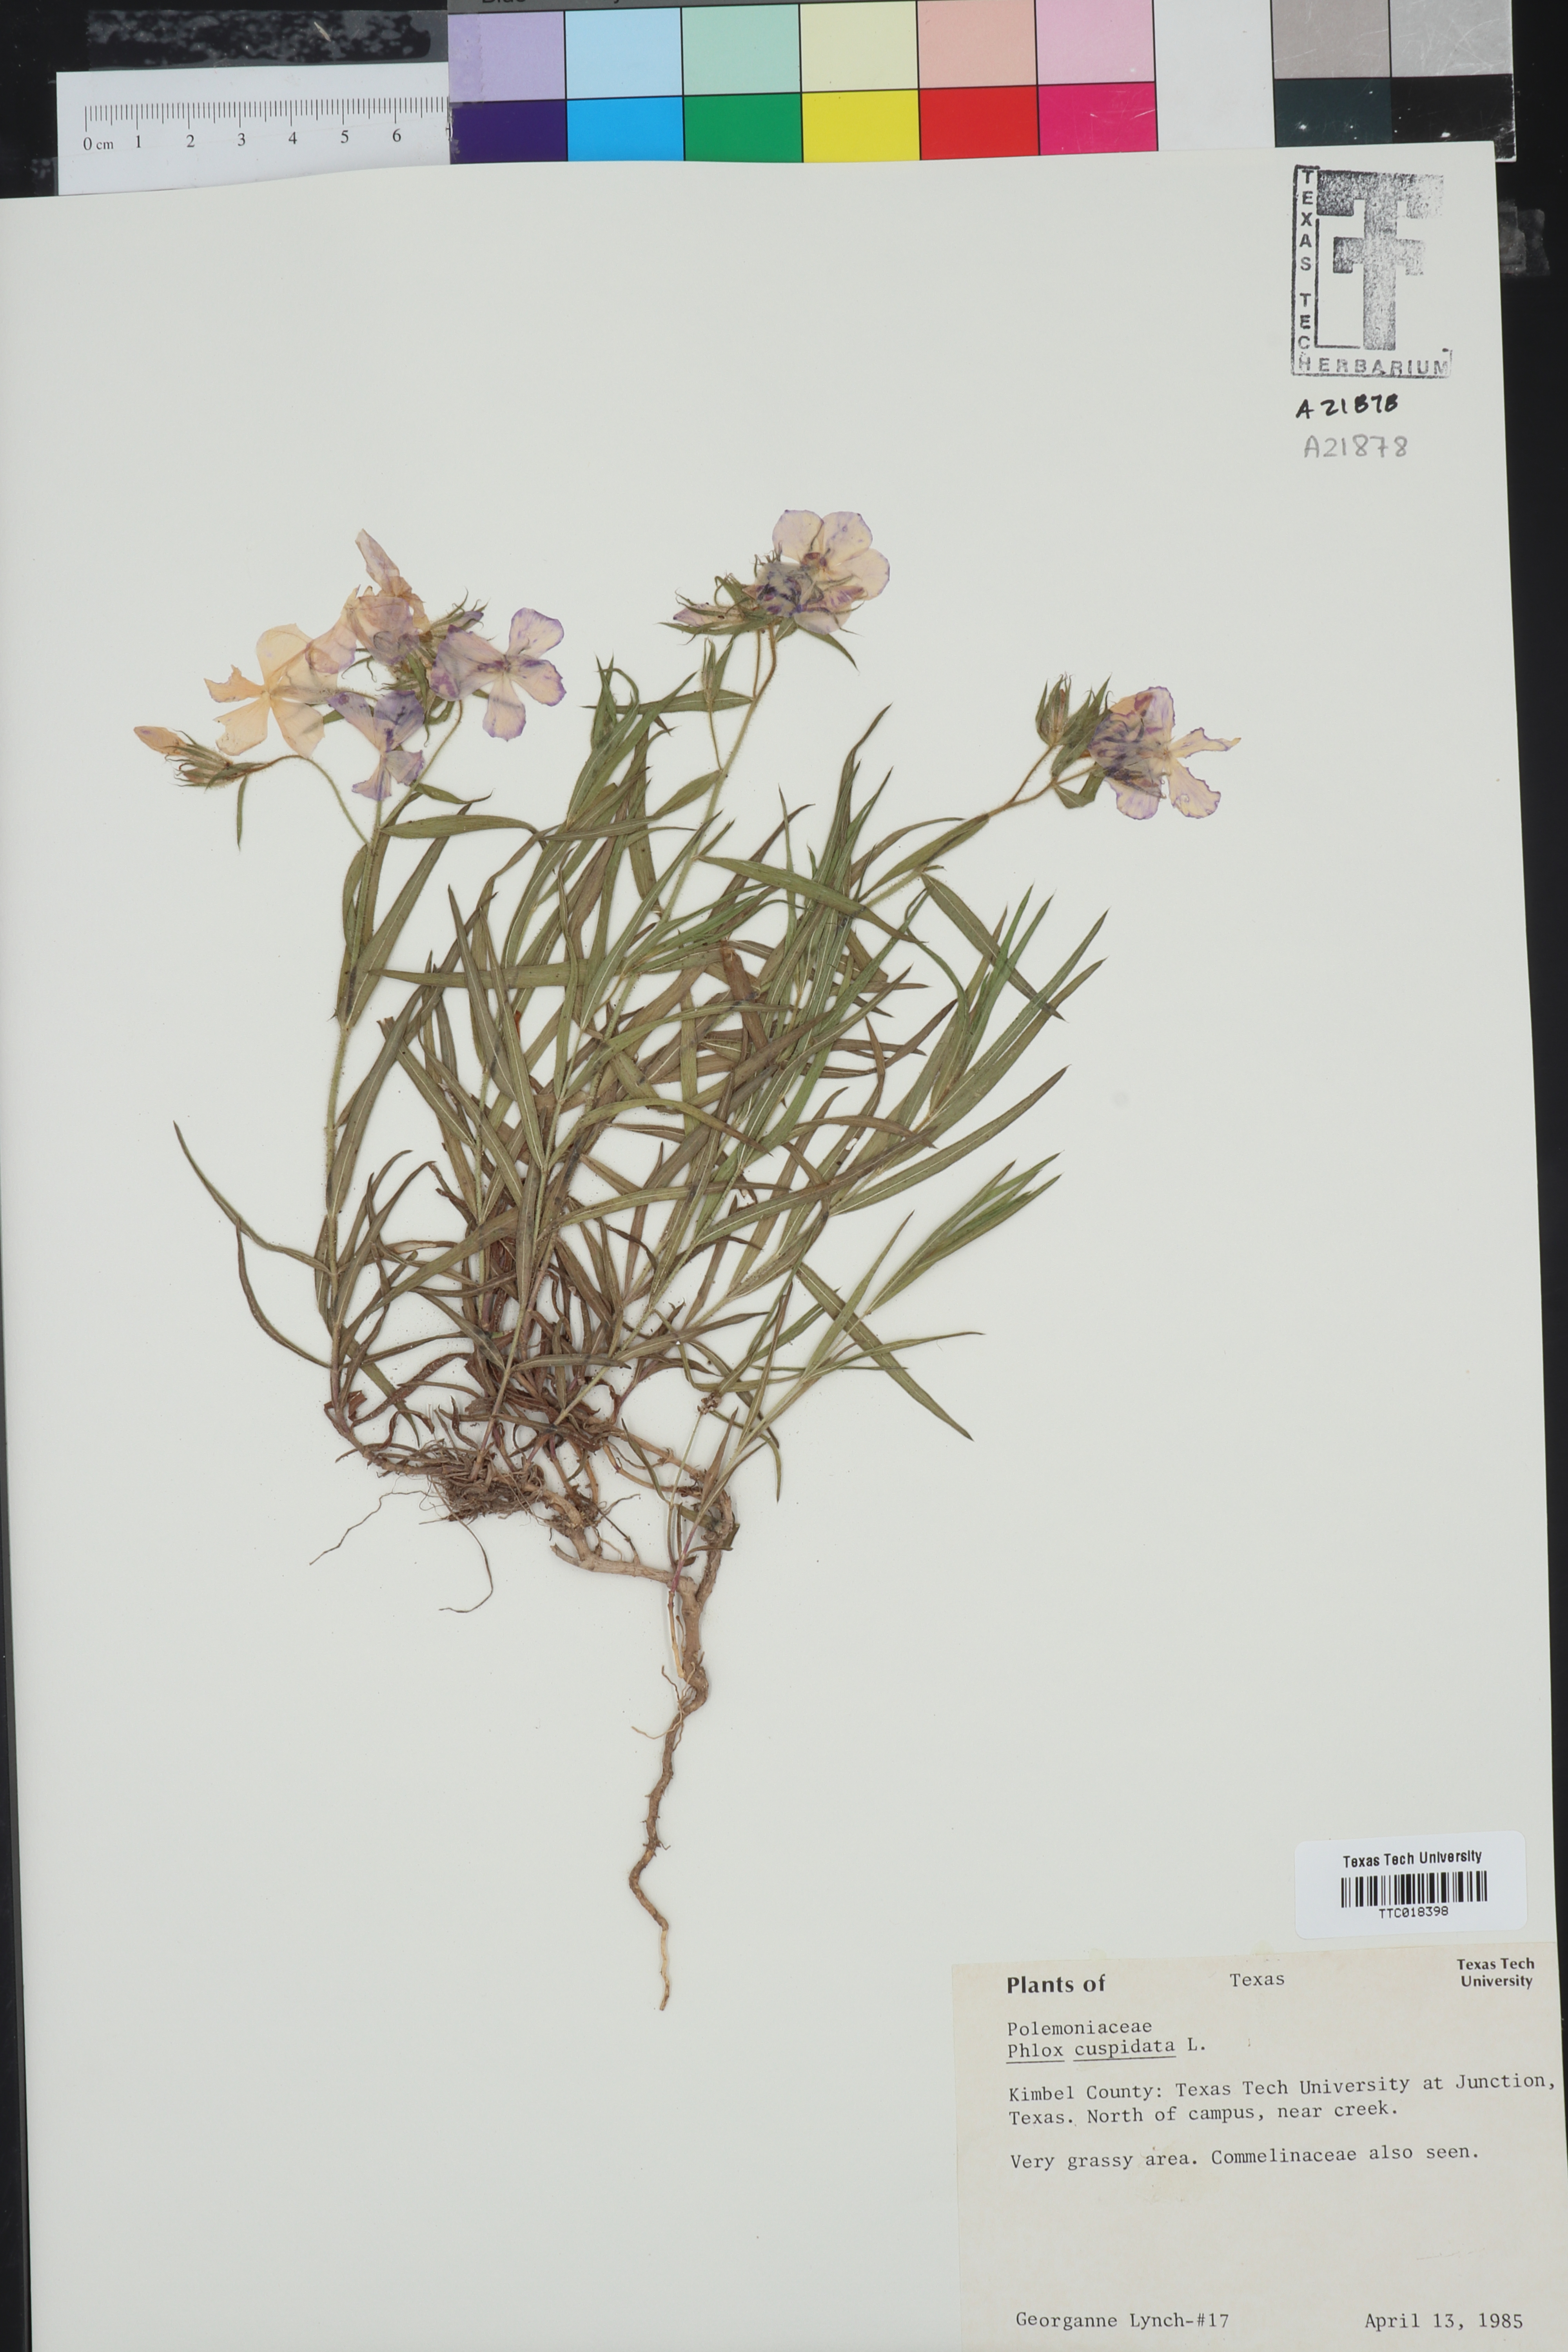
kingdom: Plantae
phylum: Tracheophyta
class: Magnoliopsida
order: Ericales
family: Polemoniaceae
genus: Phlox
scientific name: Phlox cuspidata
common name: Pointed phlox
